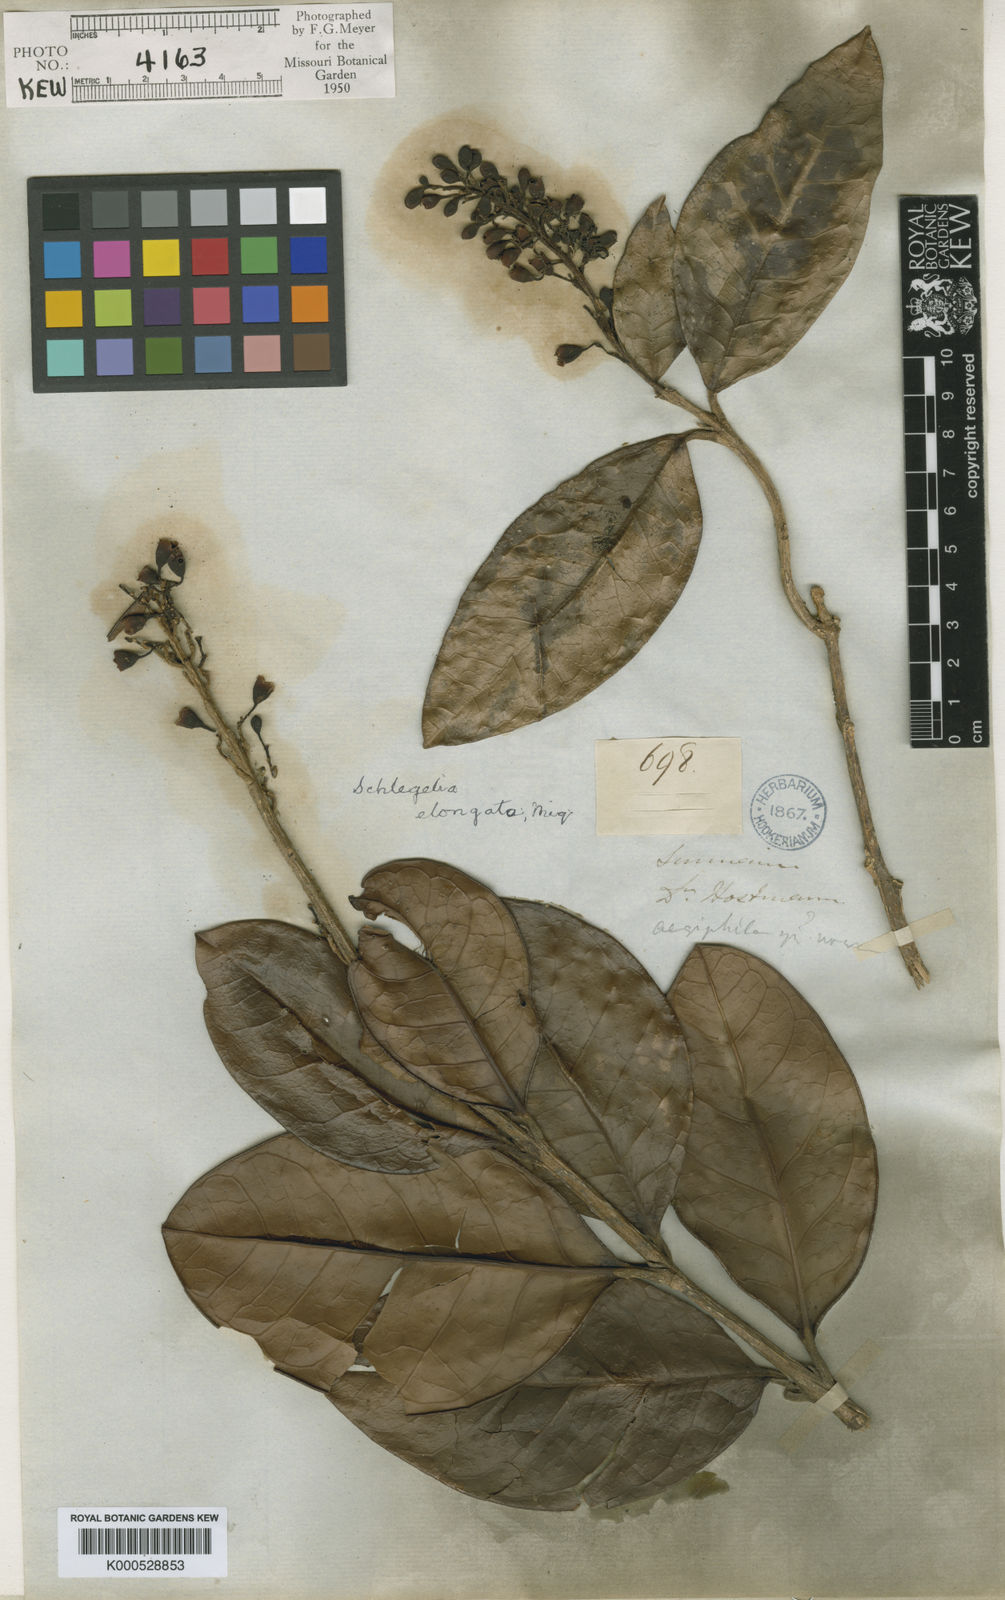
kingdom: Plantae
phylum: Tracheophyta
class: Magnoliopsida
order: Lamiales
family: Schlegeliaceae
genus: Schlegelia
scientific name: Schlegelia violacea
